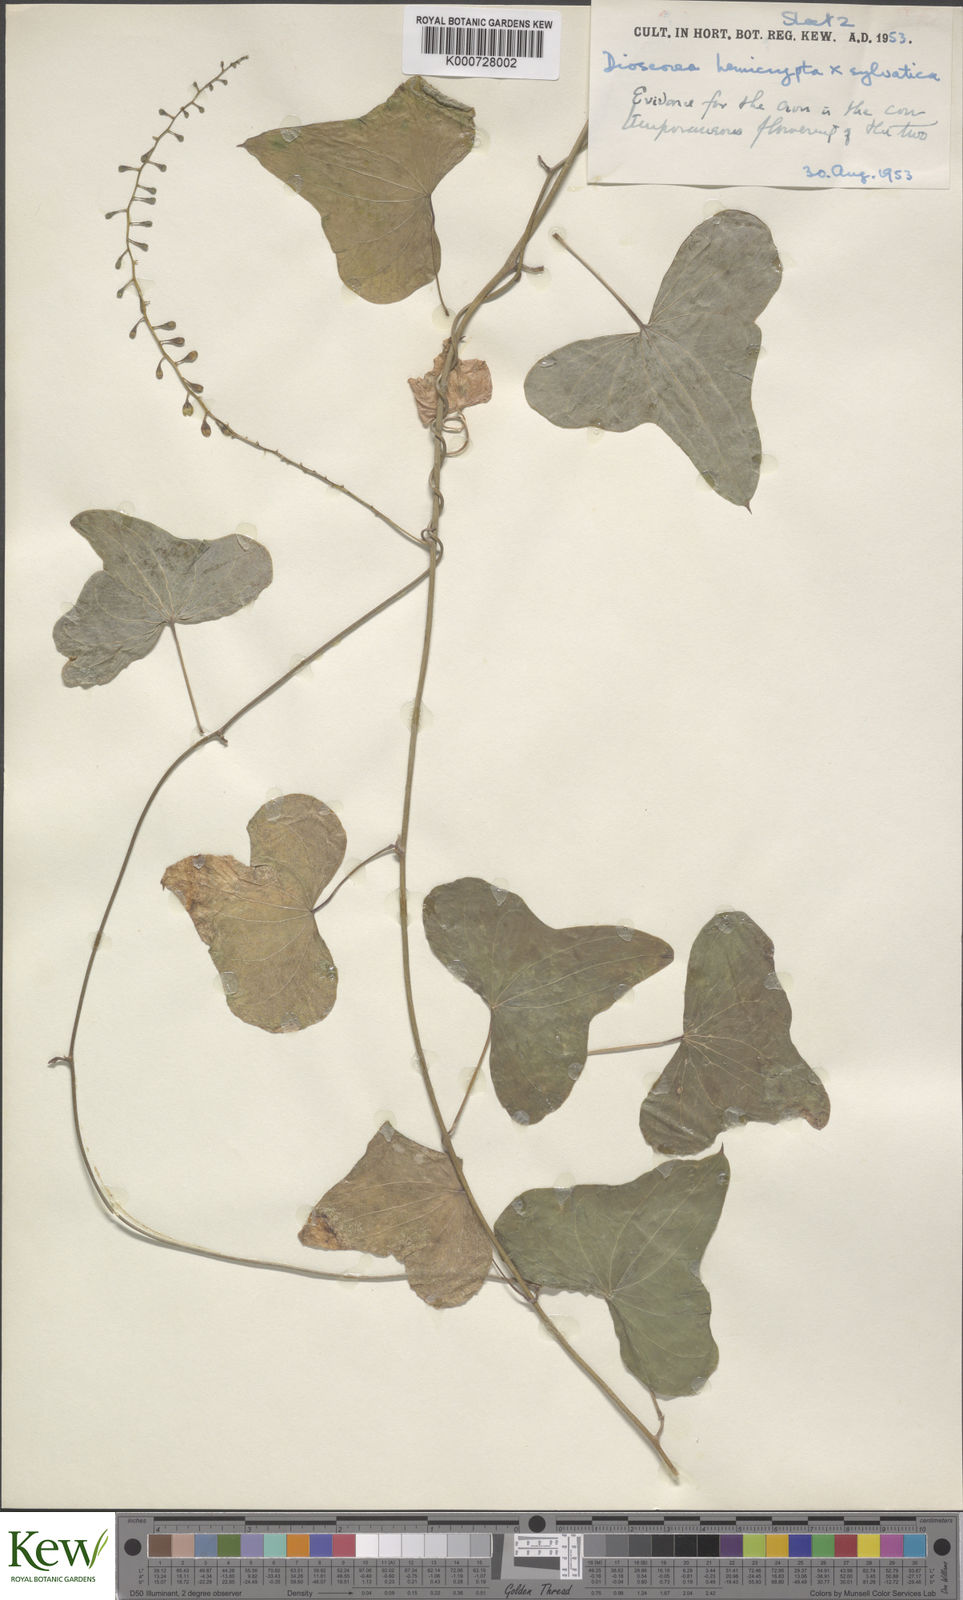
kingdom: Plantae
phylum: Tracheophyta
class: Liliopsida
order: Dioscoreales
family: Dioscoreaceae
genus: Dioscorea
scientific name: Dioscorea hemicrypta
